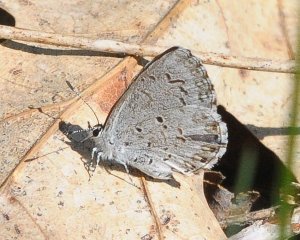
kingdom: Animalia
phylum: Arthropoda
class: Insecta
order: Lepidoptera
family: Lycaenidae
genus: Celastrina
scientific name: Celastrina lucia
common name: Northern Spring Azure
